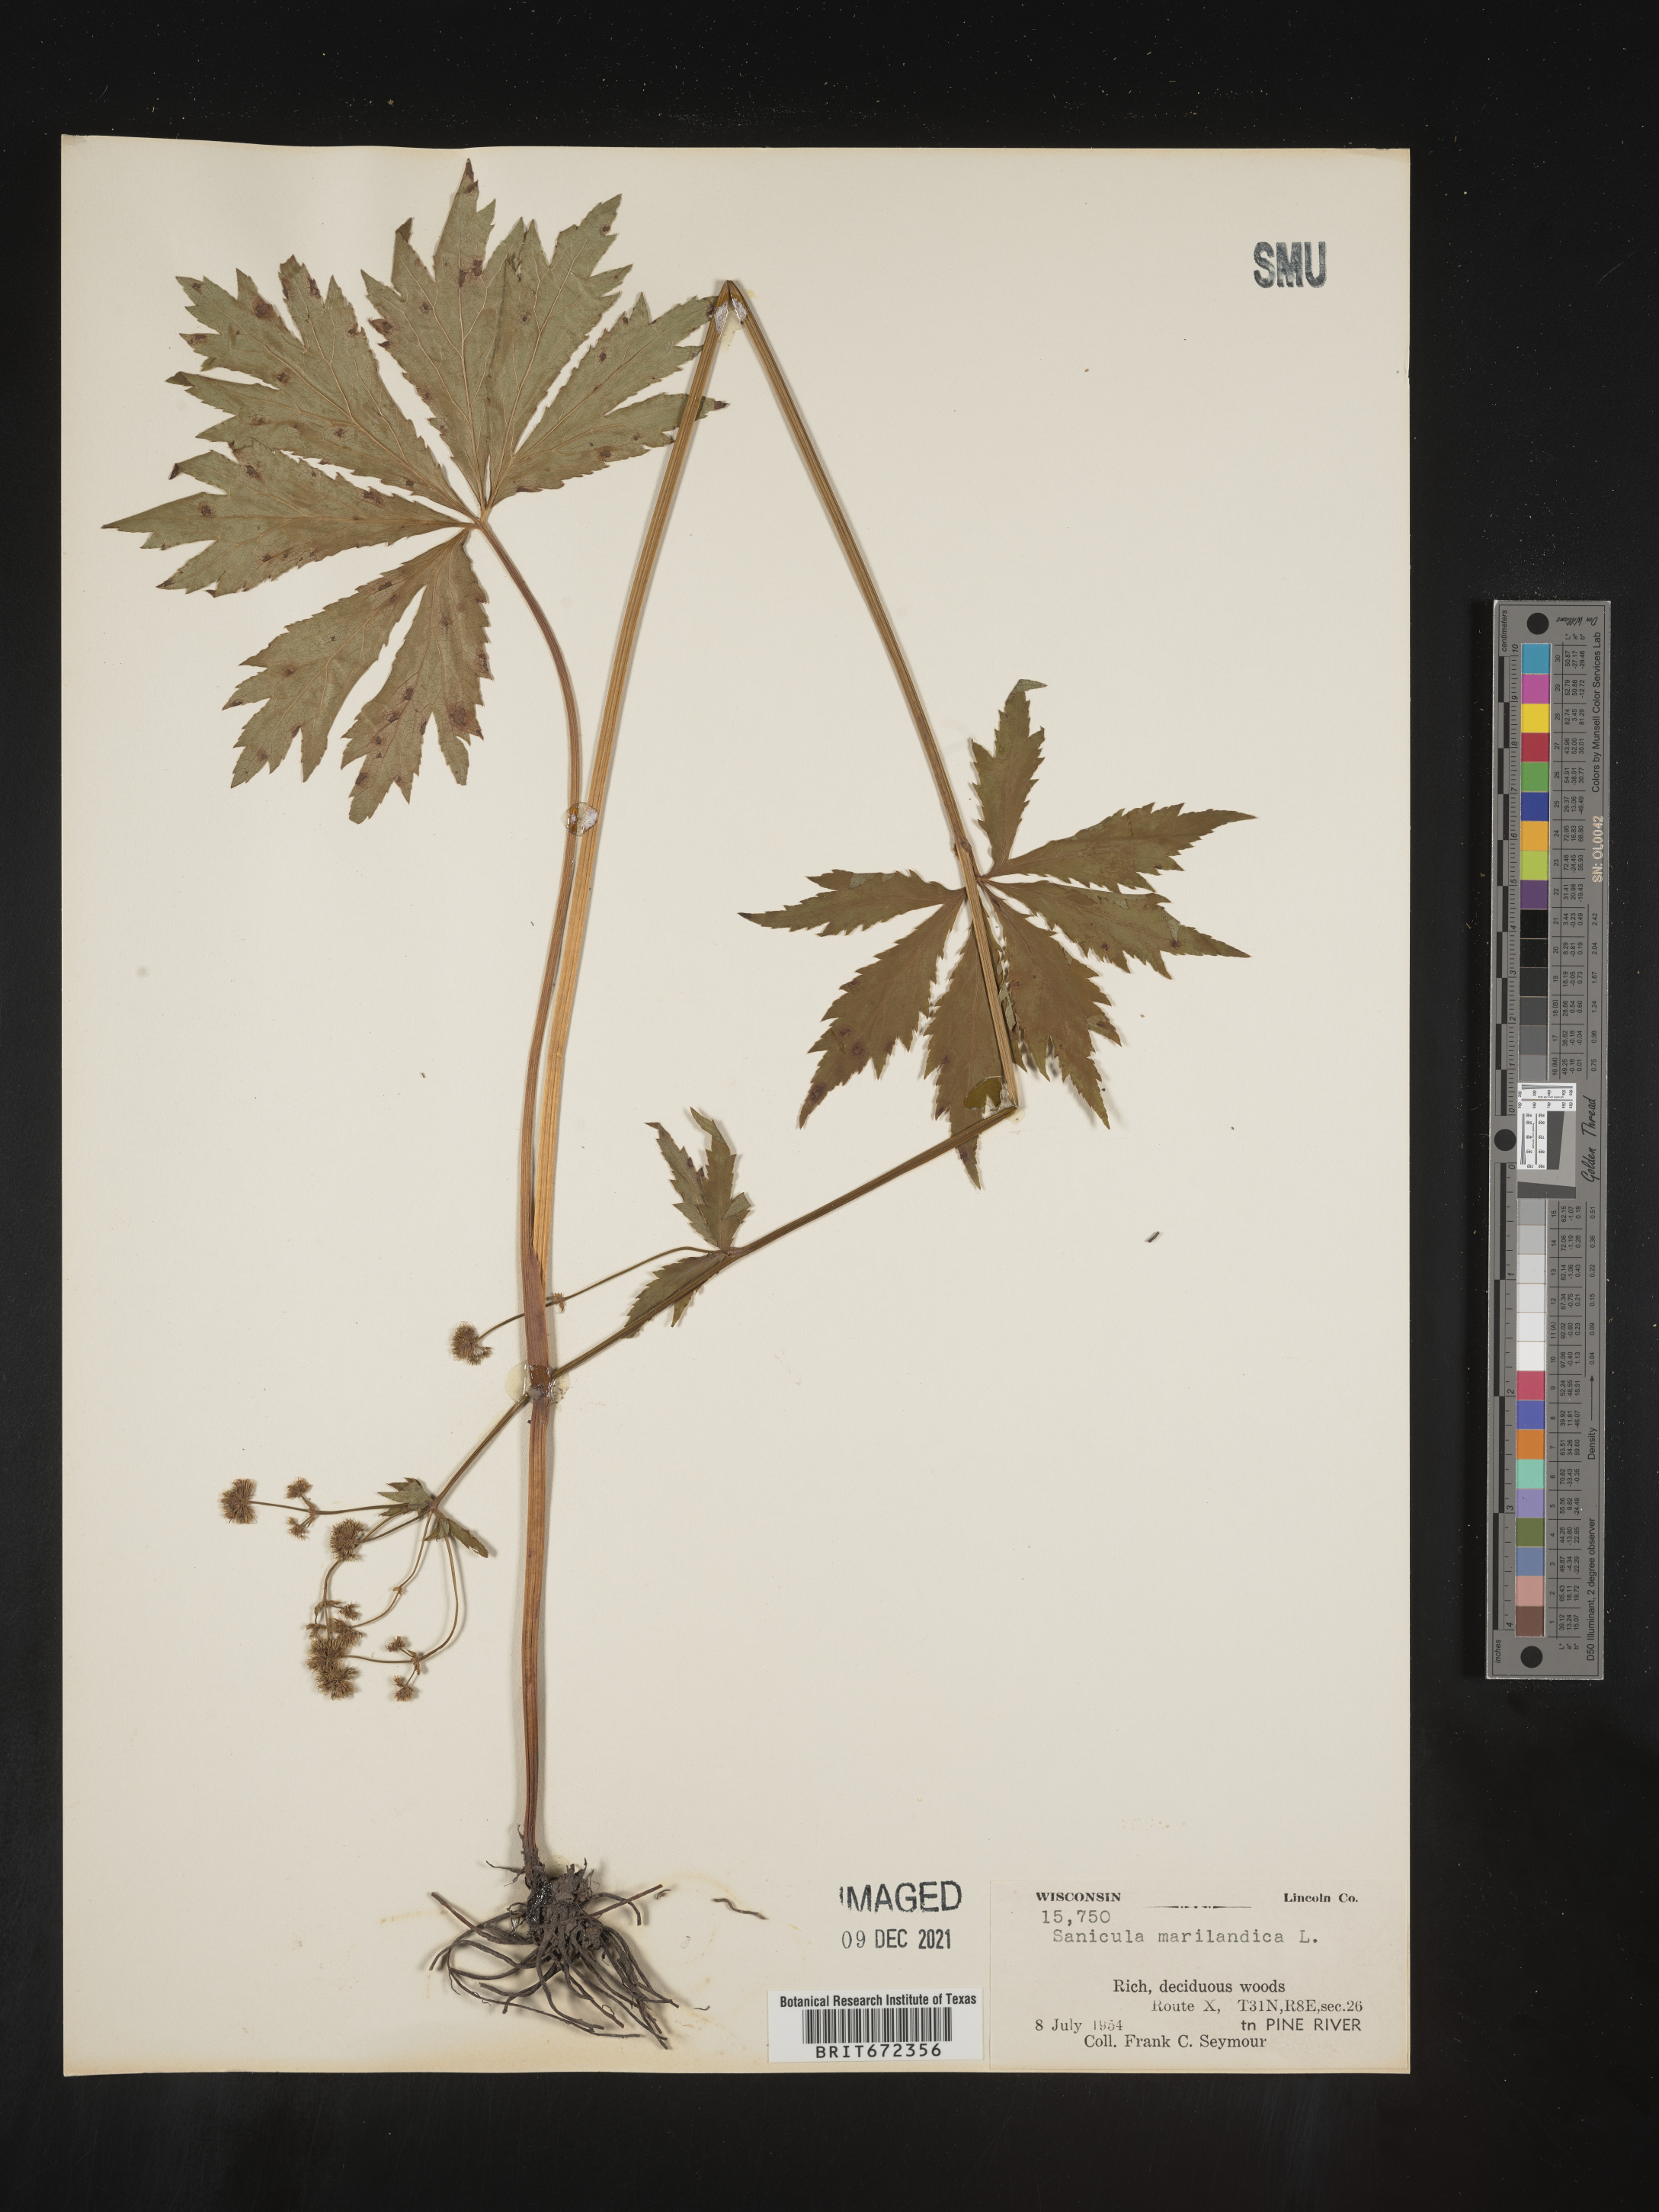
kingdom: Plantae
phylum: Tracheophyta
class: Magnoliopsida
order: Apiales
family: Apiaceae
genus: Sanicula
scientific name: Sanicula marilandica
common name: Black snakeroot
